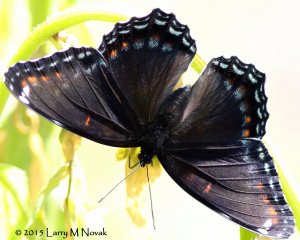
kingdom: Animalia
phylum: Arthropoda
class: Insecta
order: Lepidoptera
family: Nymphalidae
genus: Limenitis
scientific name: Limenitis astyanax
